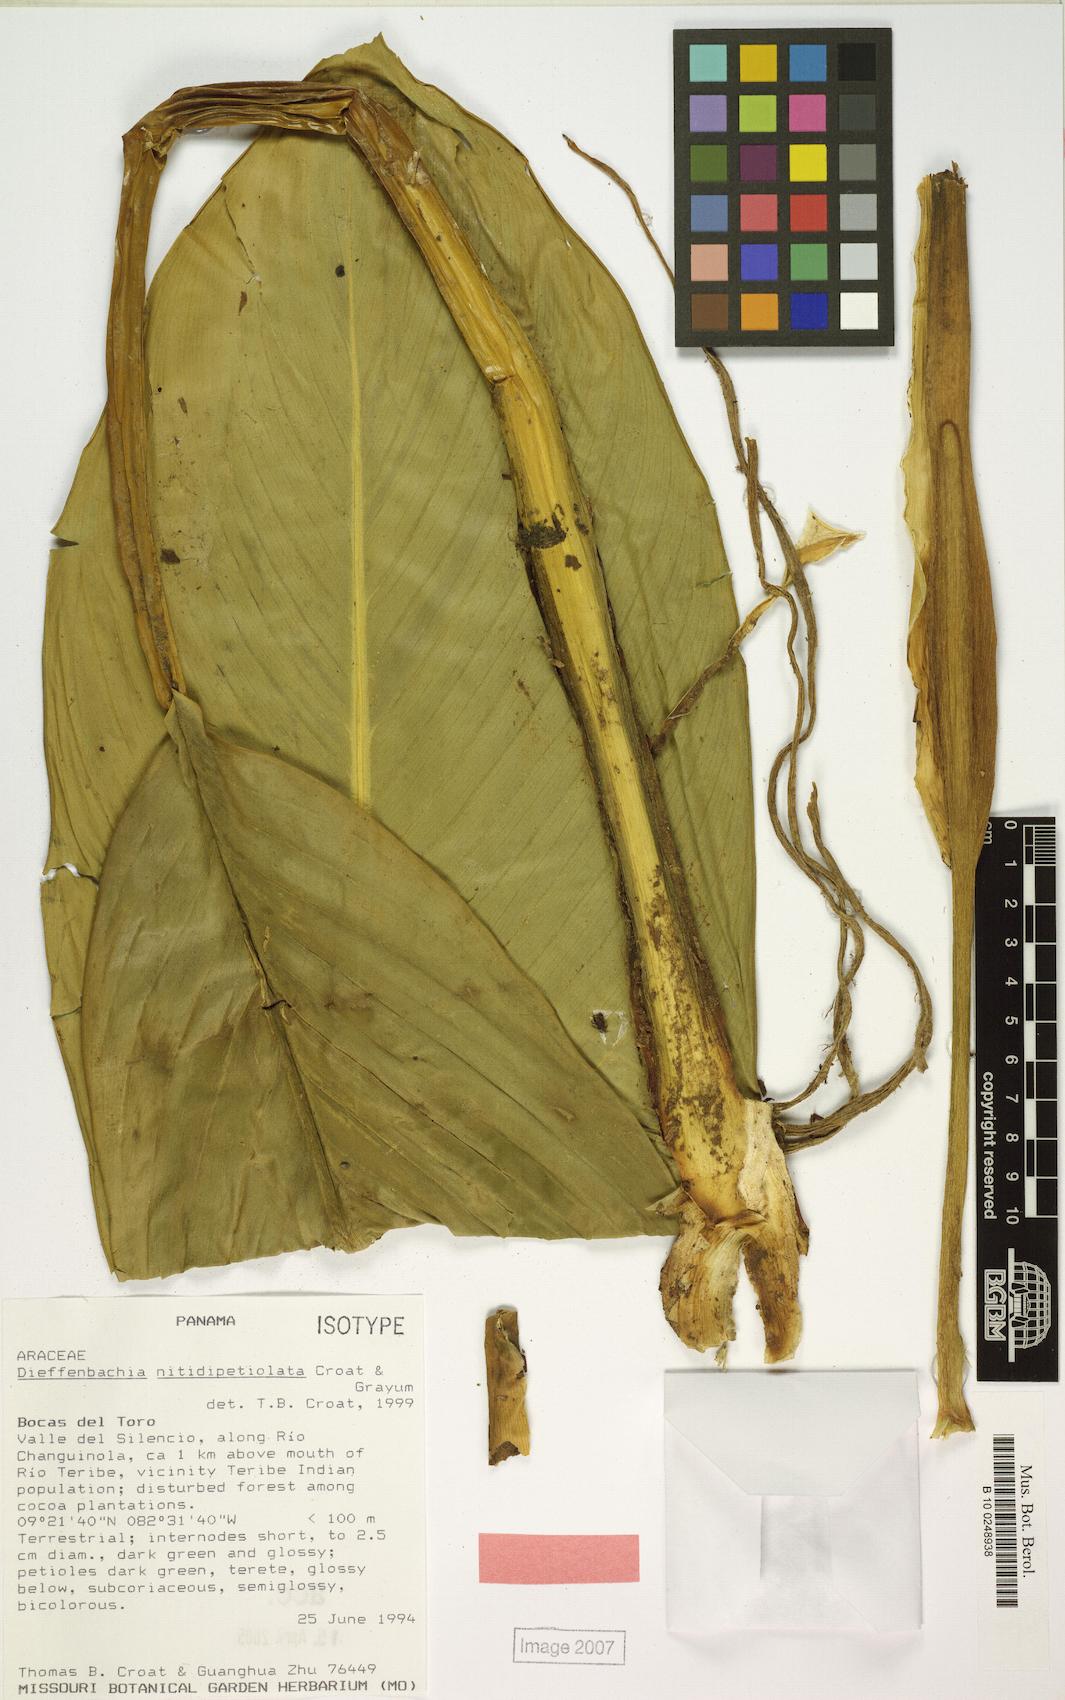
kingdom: Plantae
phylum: Tracheophyta
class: Liliopsida
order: Alismatales
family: Araceae
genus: Dieffenbachia
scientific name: Dieffenbachia nitidipetiolata
